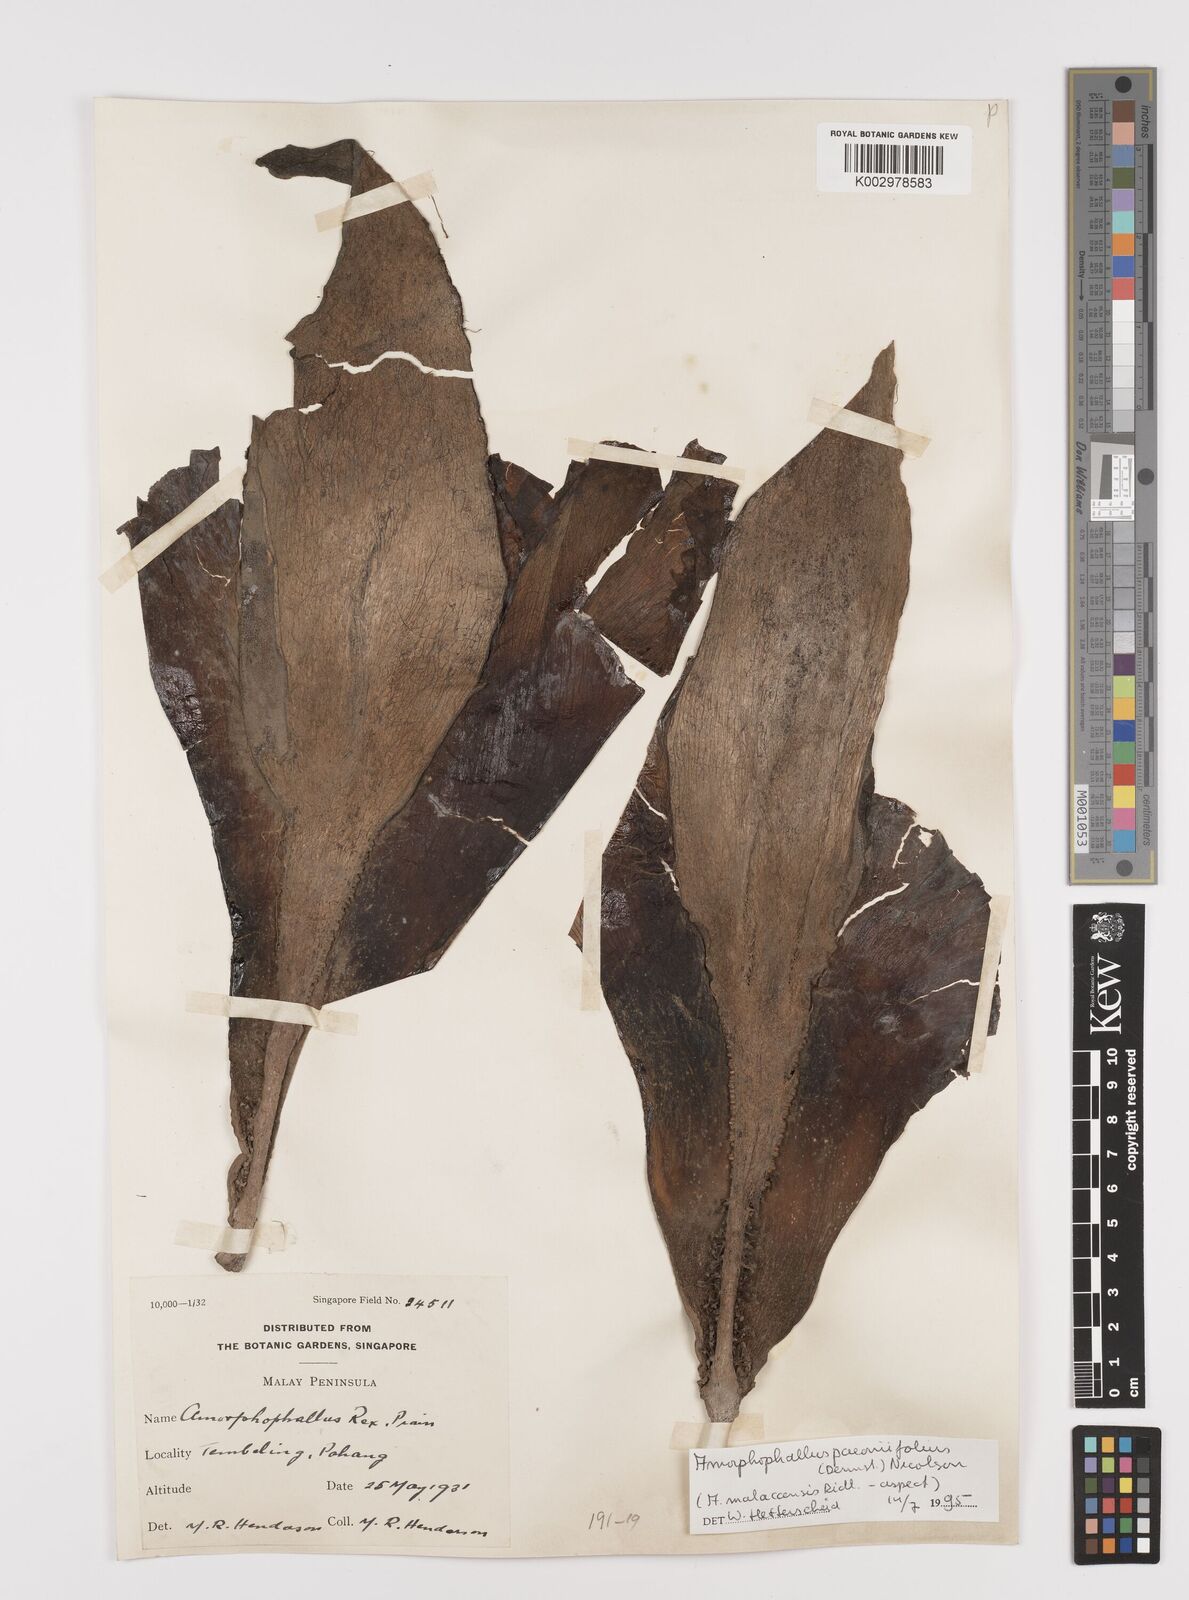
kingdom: Plantae
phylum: Tracheophyta
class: Liliopsida
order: Alismatales
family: Araceae
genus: Amorphophallus
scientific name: Amorphophallus paeoniifolius
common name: Telinga-potato
